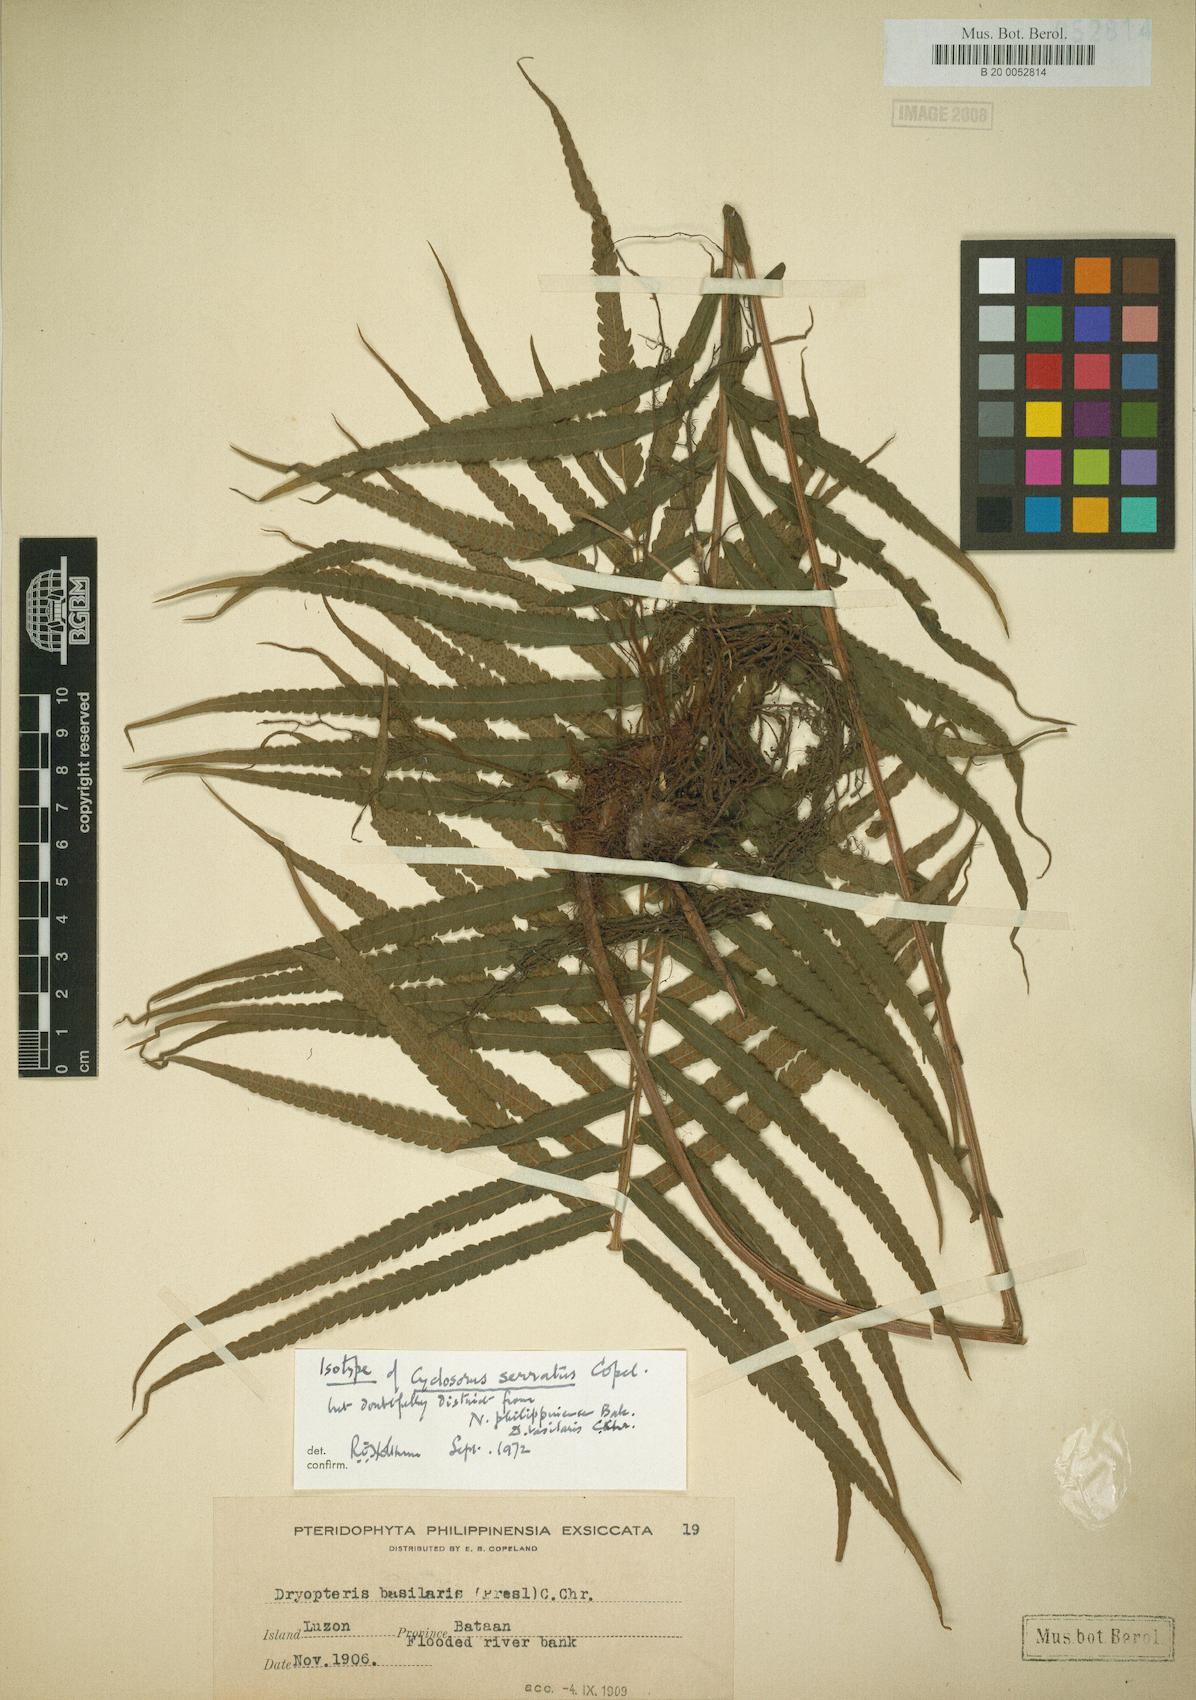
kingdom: Plantae
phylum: Tracheophyta
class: Polypodiopsida
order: Polypodiales
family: Thelypteridaceae
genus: Sphaerostephanos
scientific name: Sphaerostephanos productus
